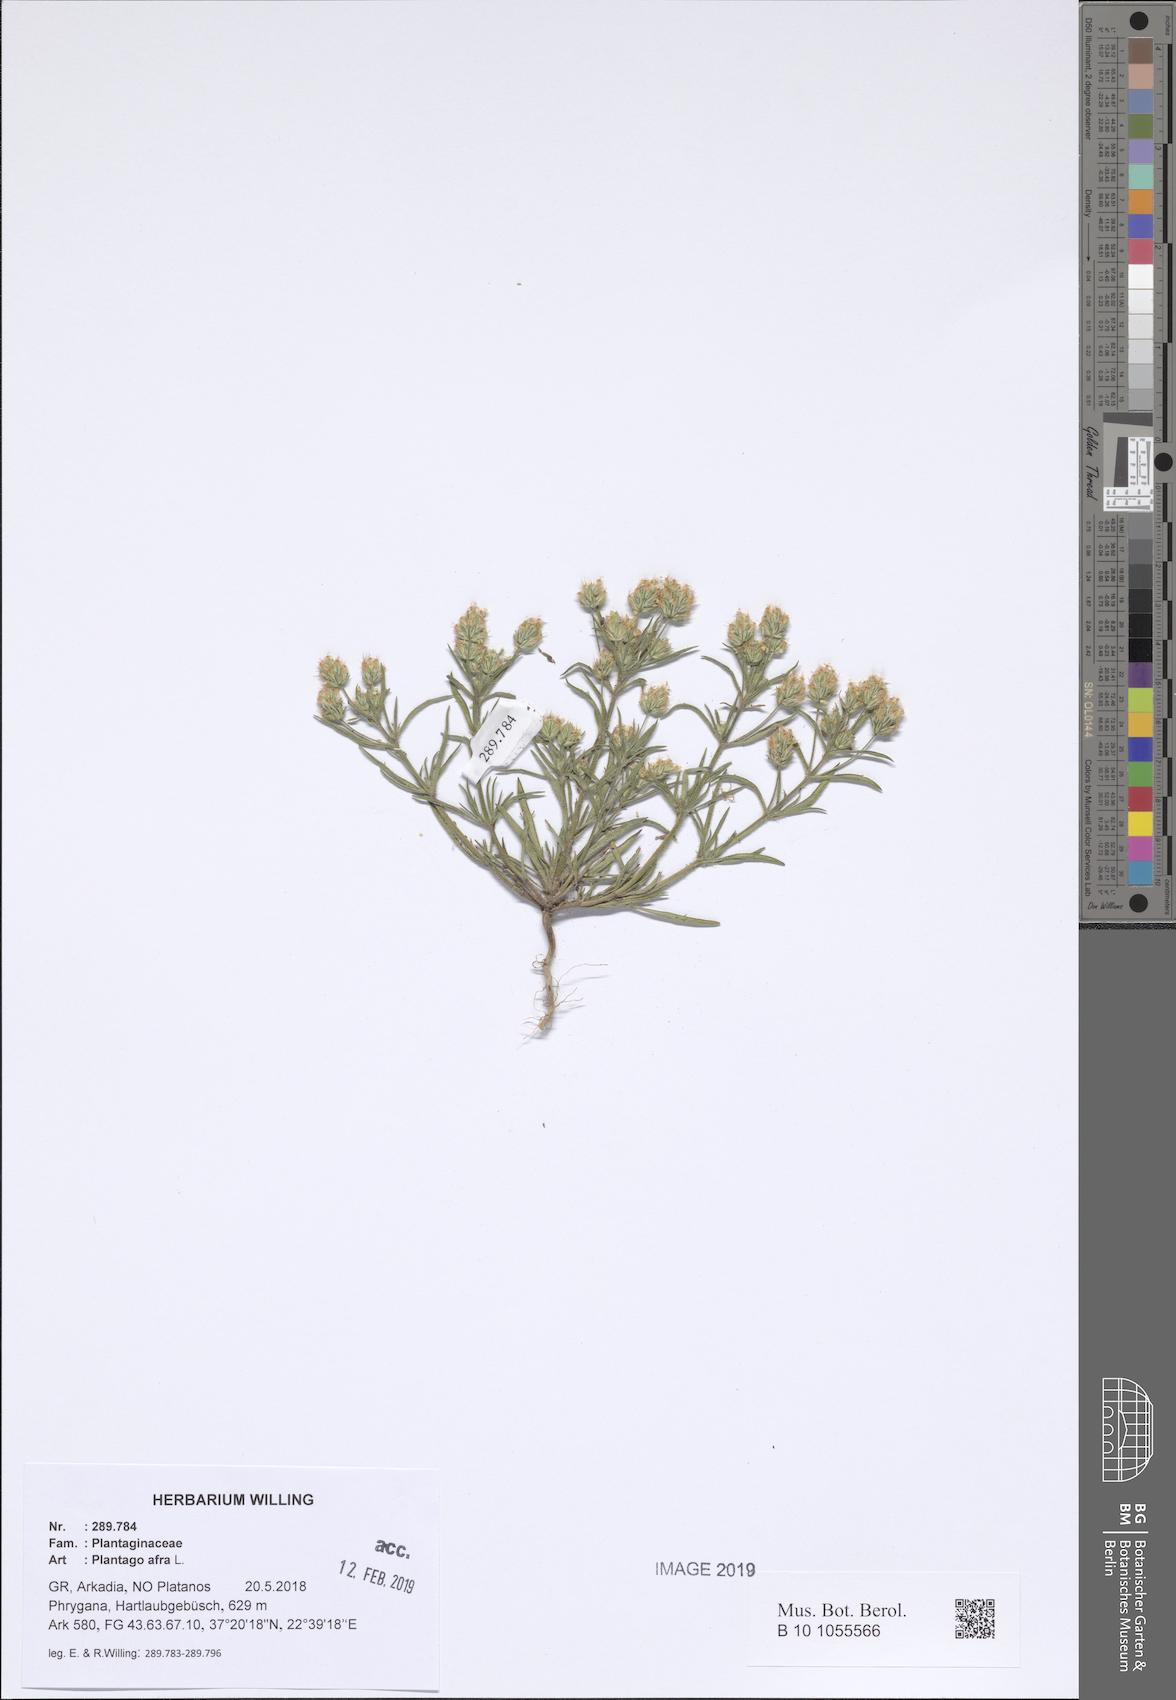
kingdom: Plantae
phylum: Tracheophyta
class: Magnoliopsida
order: Lamiales
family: Plantaginaceae
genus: Plantago
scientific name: Plantago afra
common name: Glandular plantain
